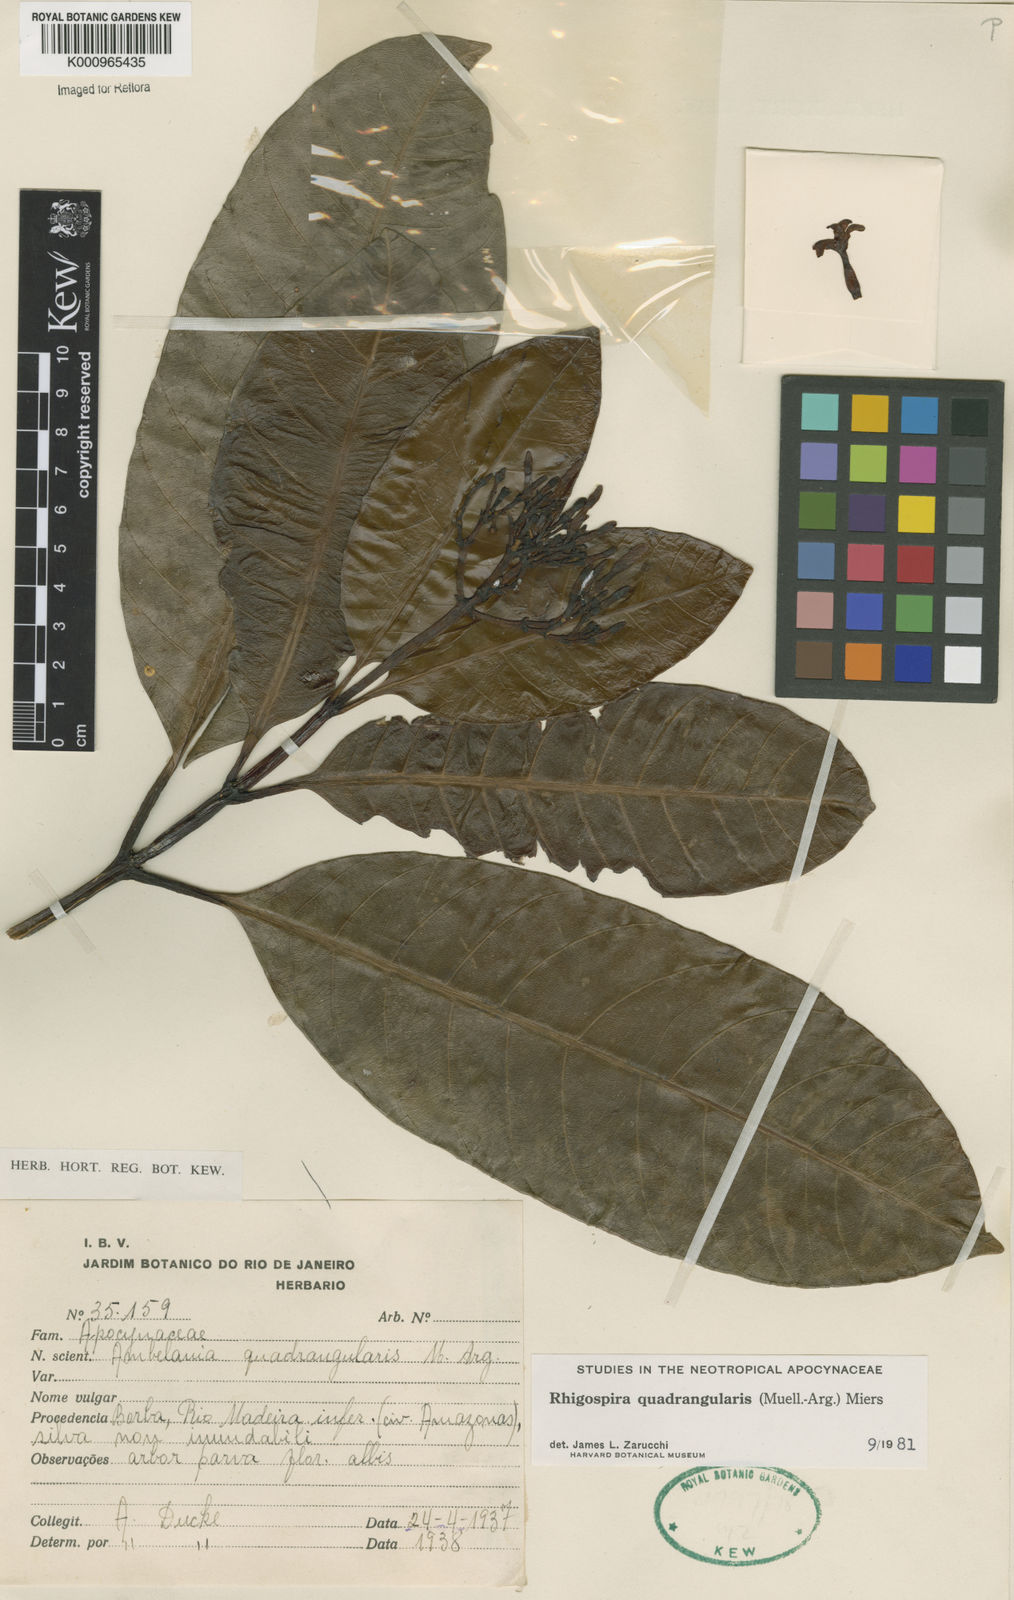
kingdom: Plantae
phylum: Tracheophyta
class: Magnoliopsida
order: Gentianales
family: Apocynaceae
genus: Rhigospira
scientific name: Rhigospira quadrangularis
